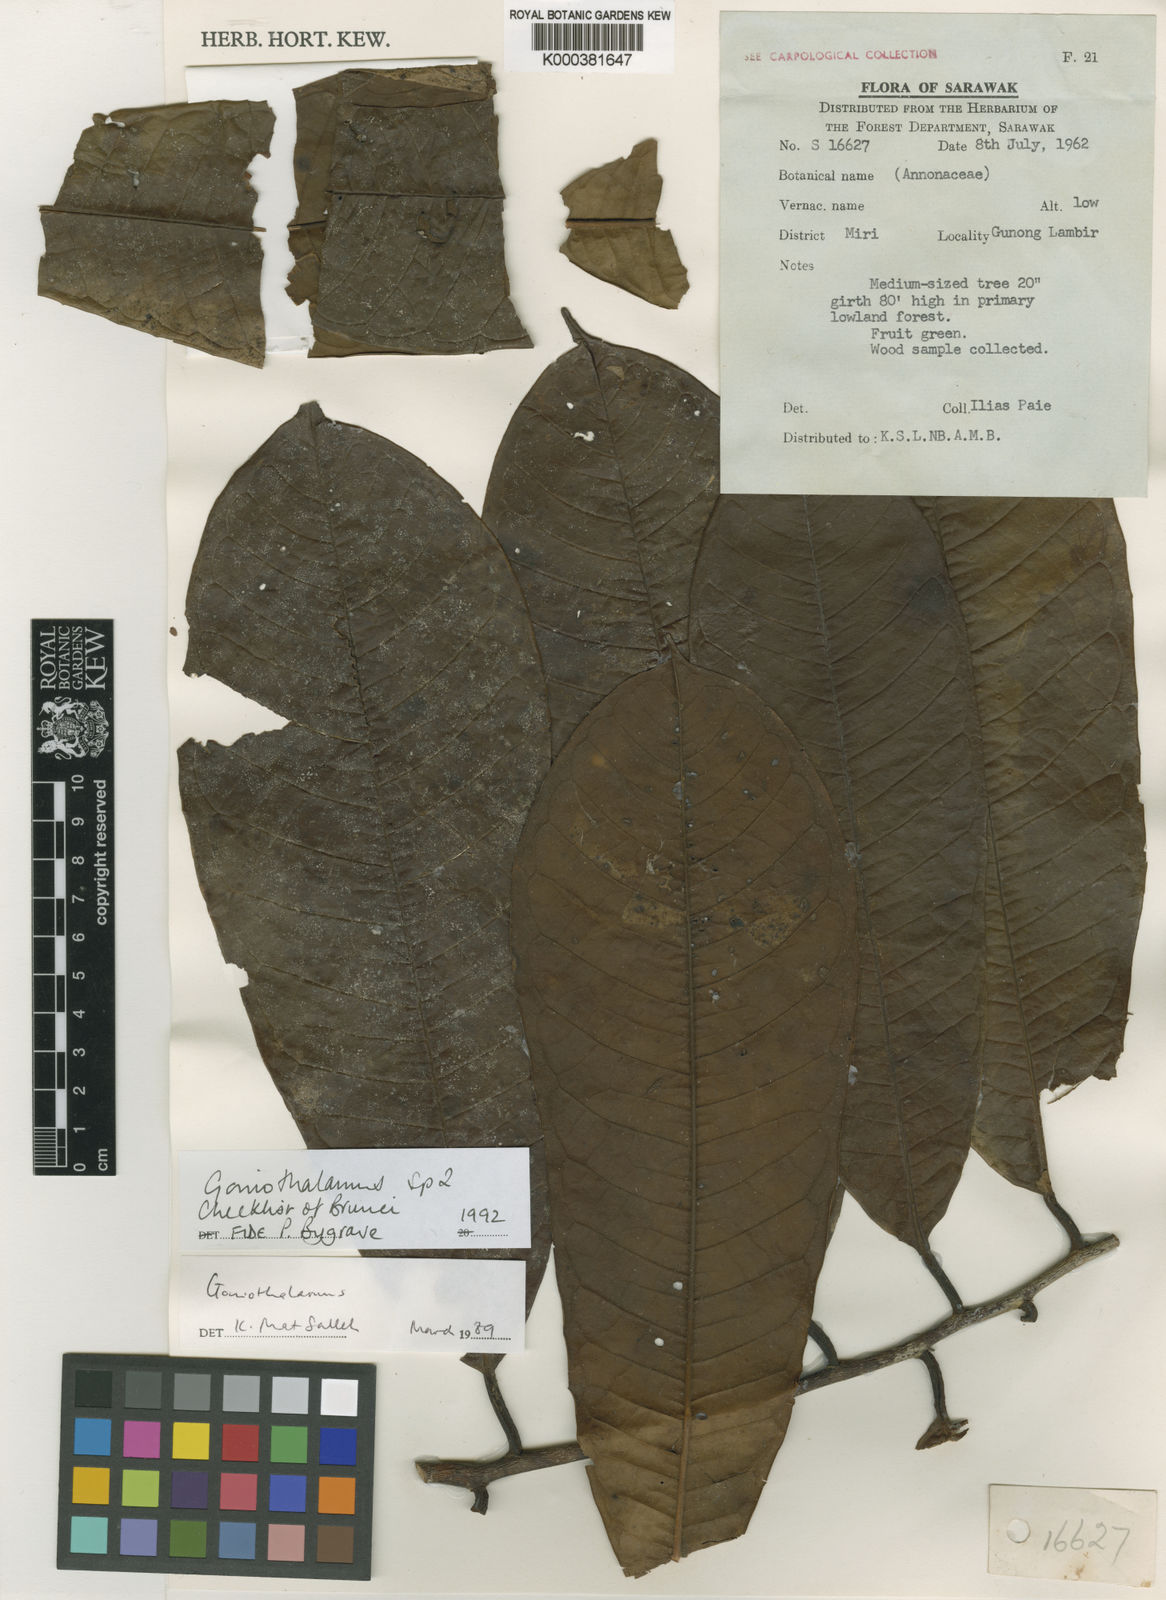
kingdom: Plantae
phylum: Tracheophyta
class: Magnoliopsida
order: Magnoliales
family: Annonaceae
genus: Goniothalamus
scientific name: Goniothalamus bygravei
